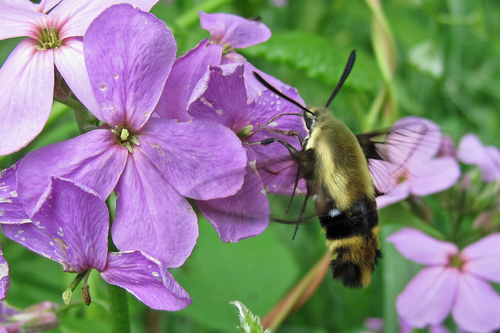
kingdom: Animalia
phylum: Arthropoda
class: Insecta
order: Lepidoptera
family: Sphingidae
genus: Hemaris
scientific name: Hemaris diffinis
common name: Bumblebee moth
